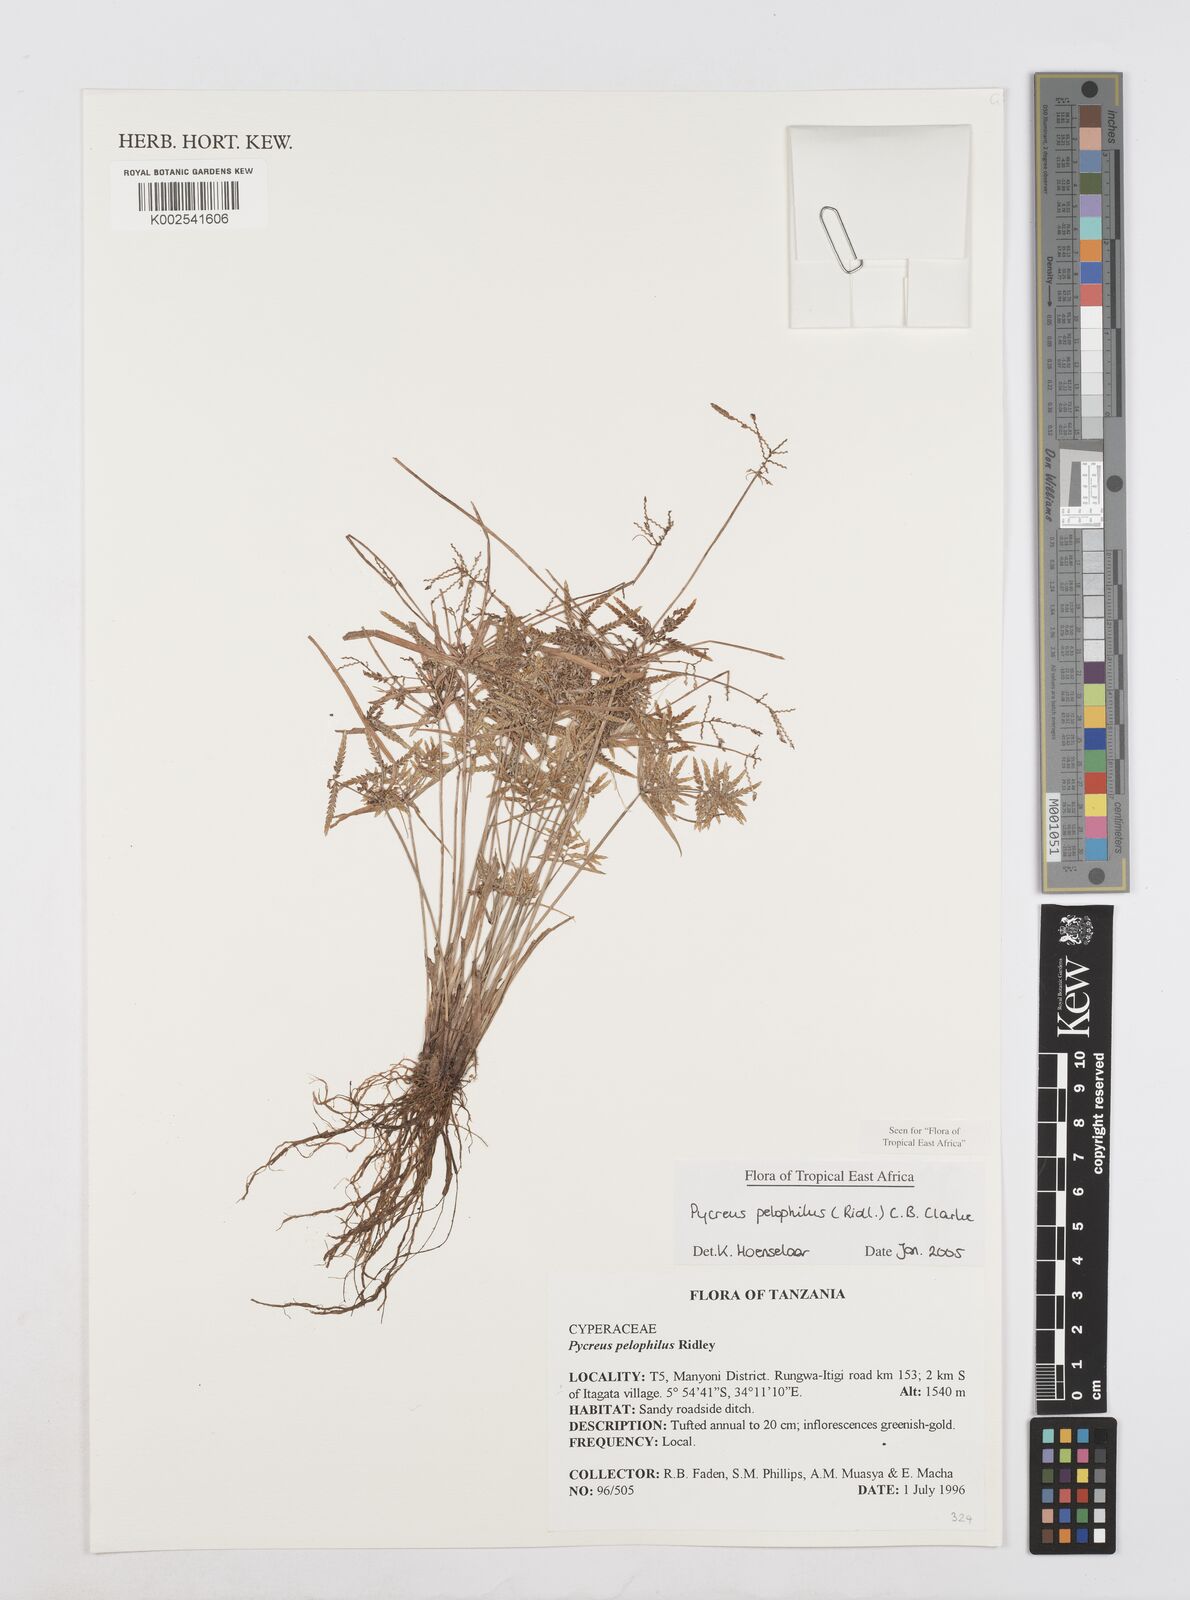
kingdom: Plantae
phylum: Tracheophyta
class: Liliopsida
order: Poales
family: Cyperaceae
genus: Cyperus
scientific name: Cyperus pelophilus
